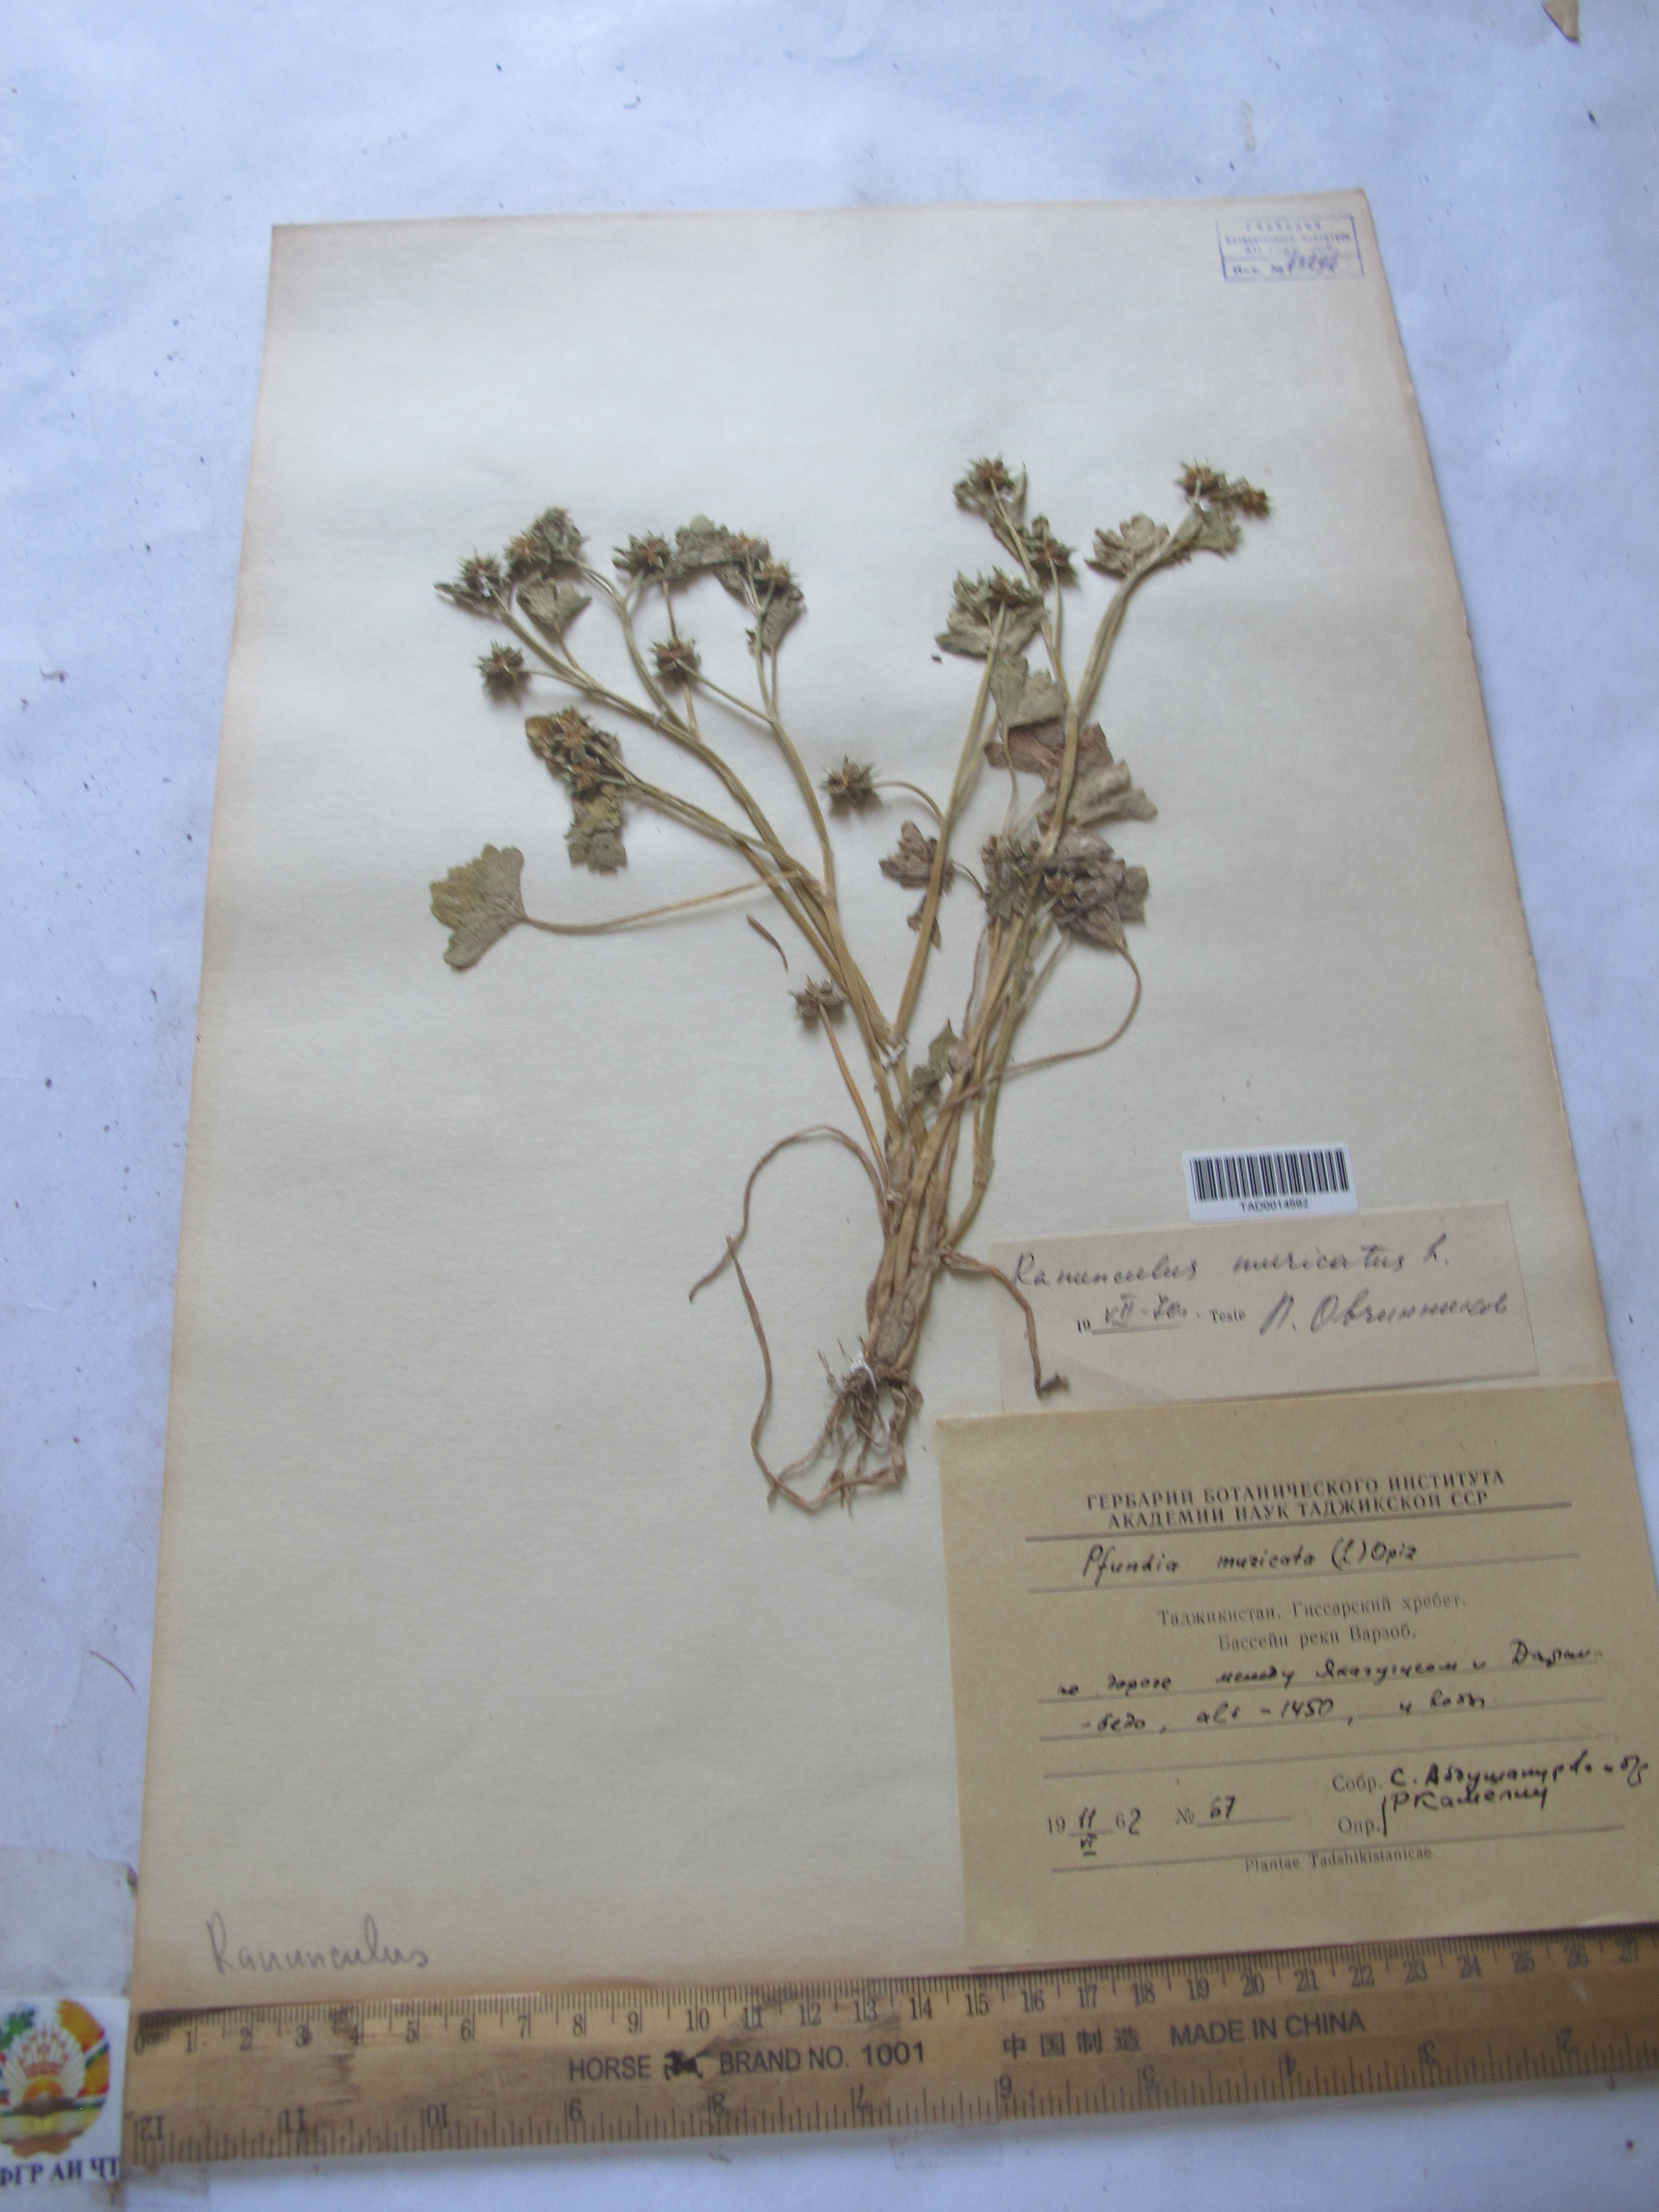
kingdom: Plantae
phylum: Tracheophyta
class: Magnoliopsida
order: Ranunculales
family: Ranunculaceae
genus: Ranunculus
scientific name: Ranunculus muricatus
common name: Rough-fruited buttercup
